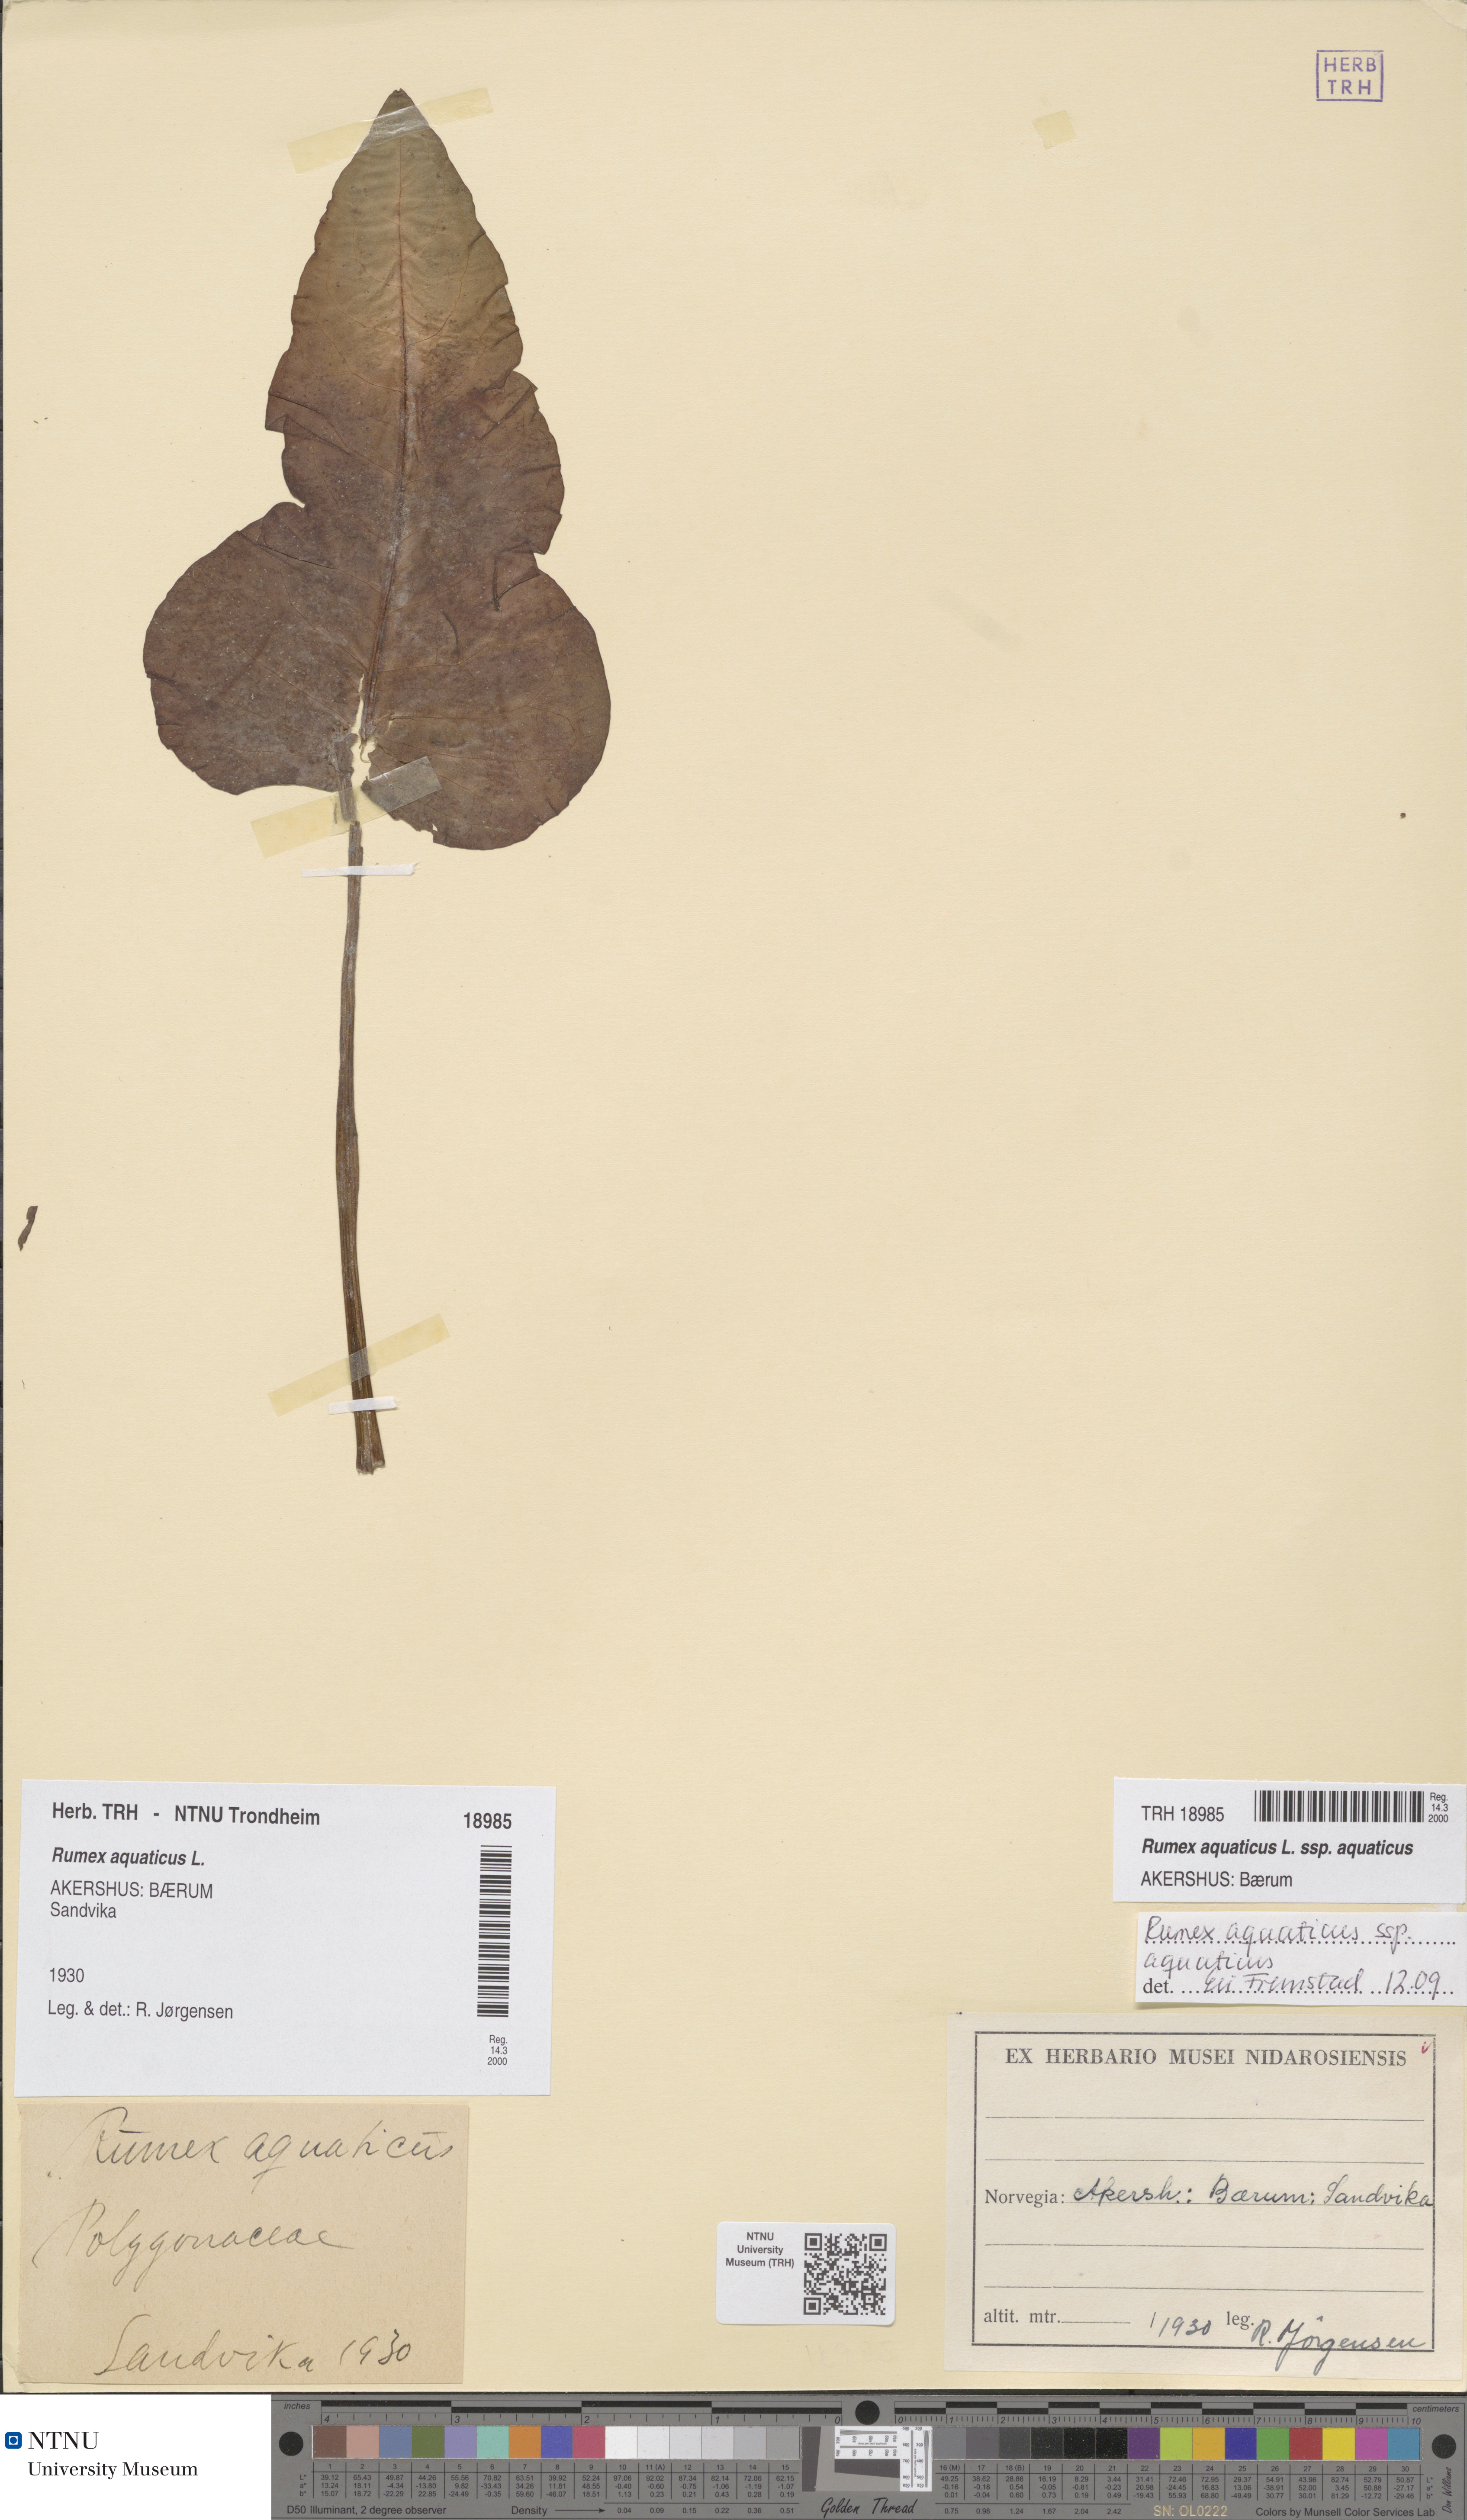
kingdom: Plantae
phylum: Tracheophyta
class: Magnoliopsida
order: Caryophyllales
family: Polygonaceae
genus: Rumex
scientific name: Rumex aquaticus
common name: Scottish dock
